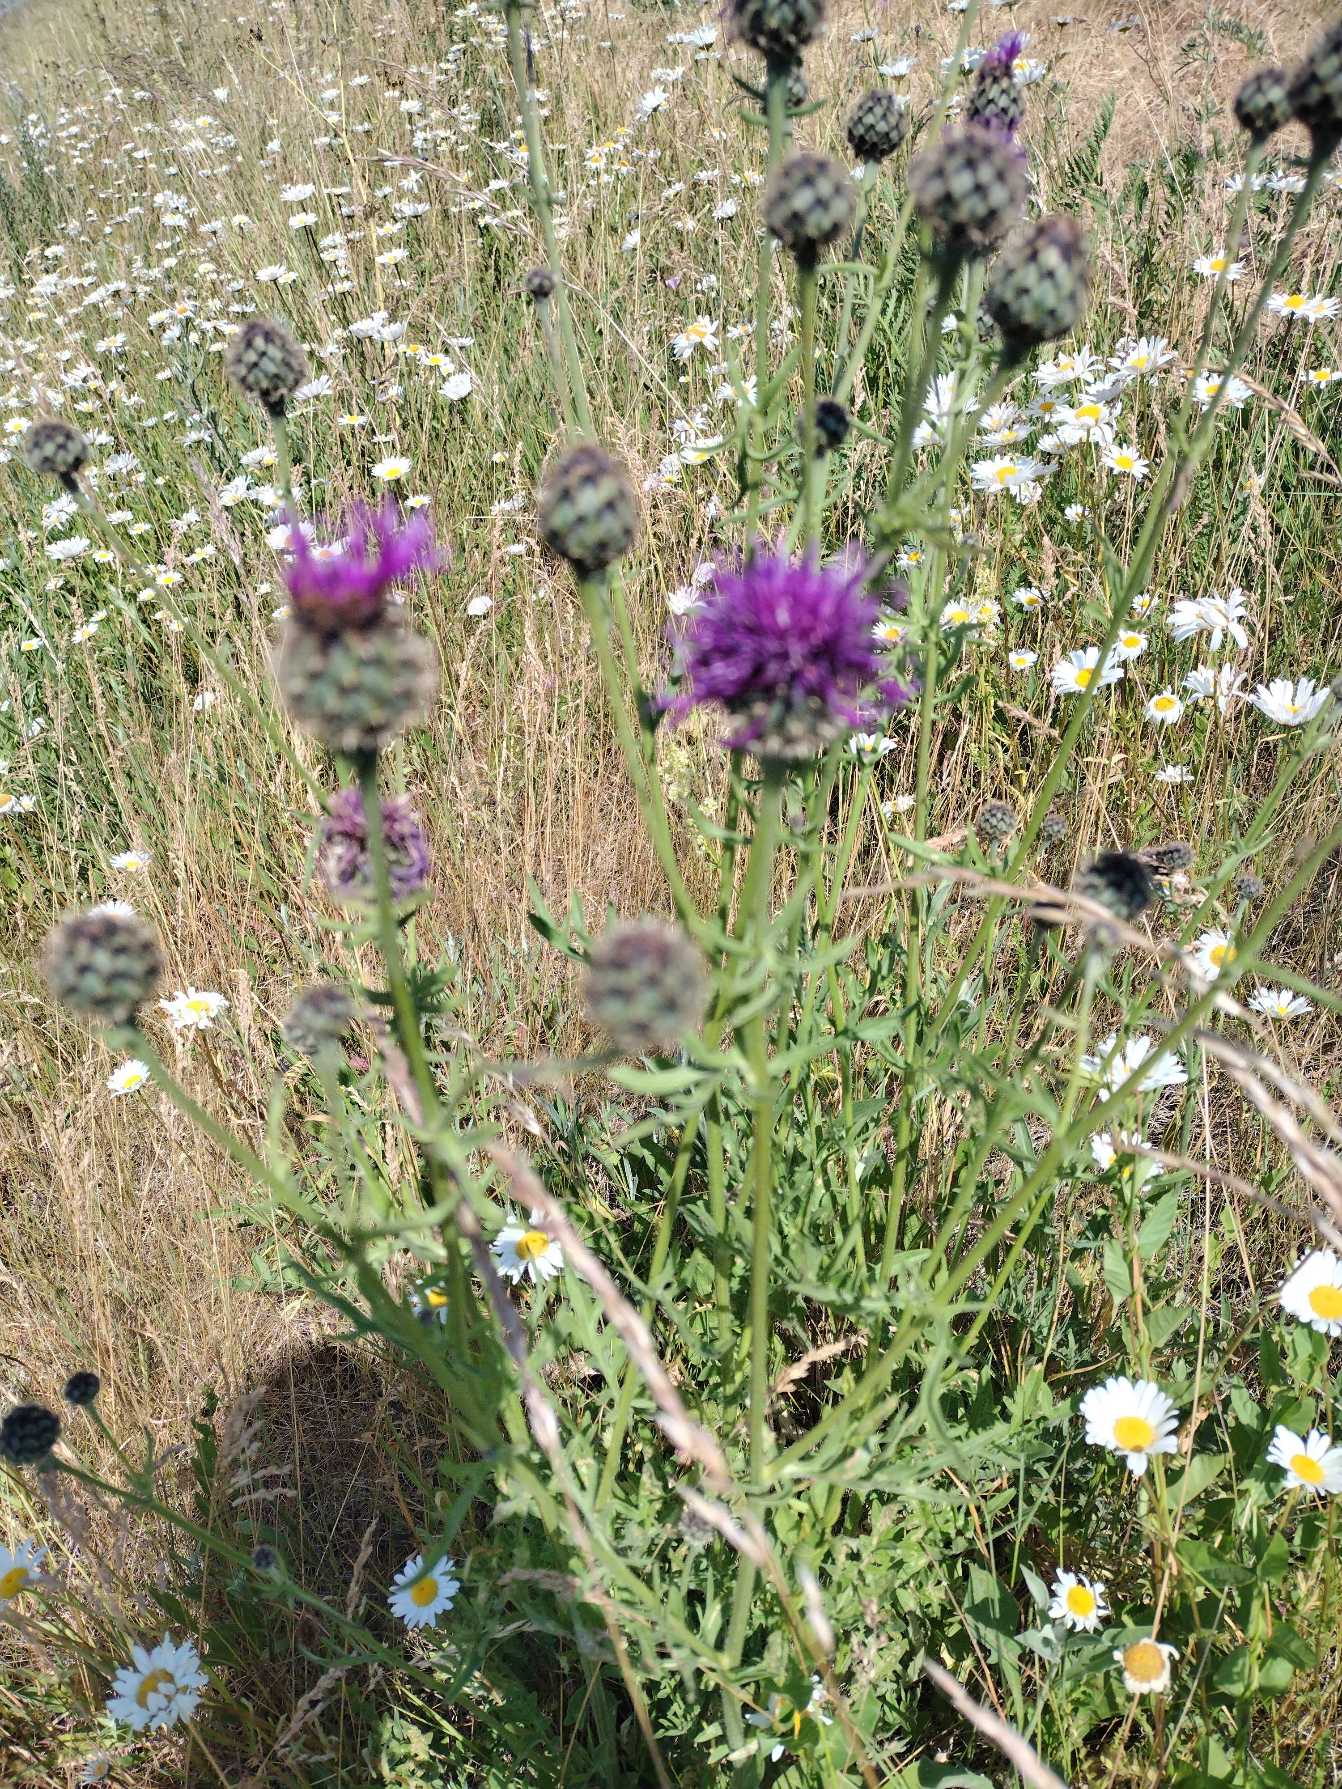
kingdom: Plantae
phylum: Tracheophyta
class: Magnoliopsida
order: Asterales
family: Asteraceae
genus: Centaurea
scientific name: Centaurea scabiosa
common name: Stor knopurt
